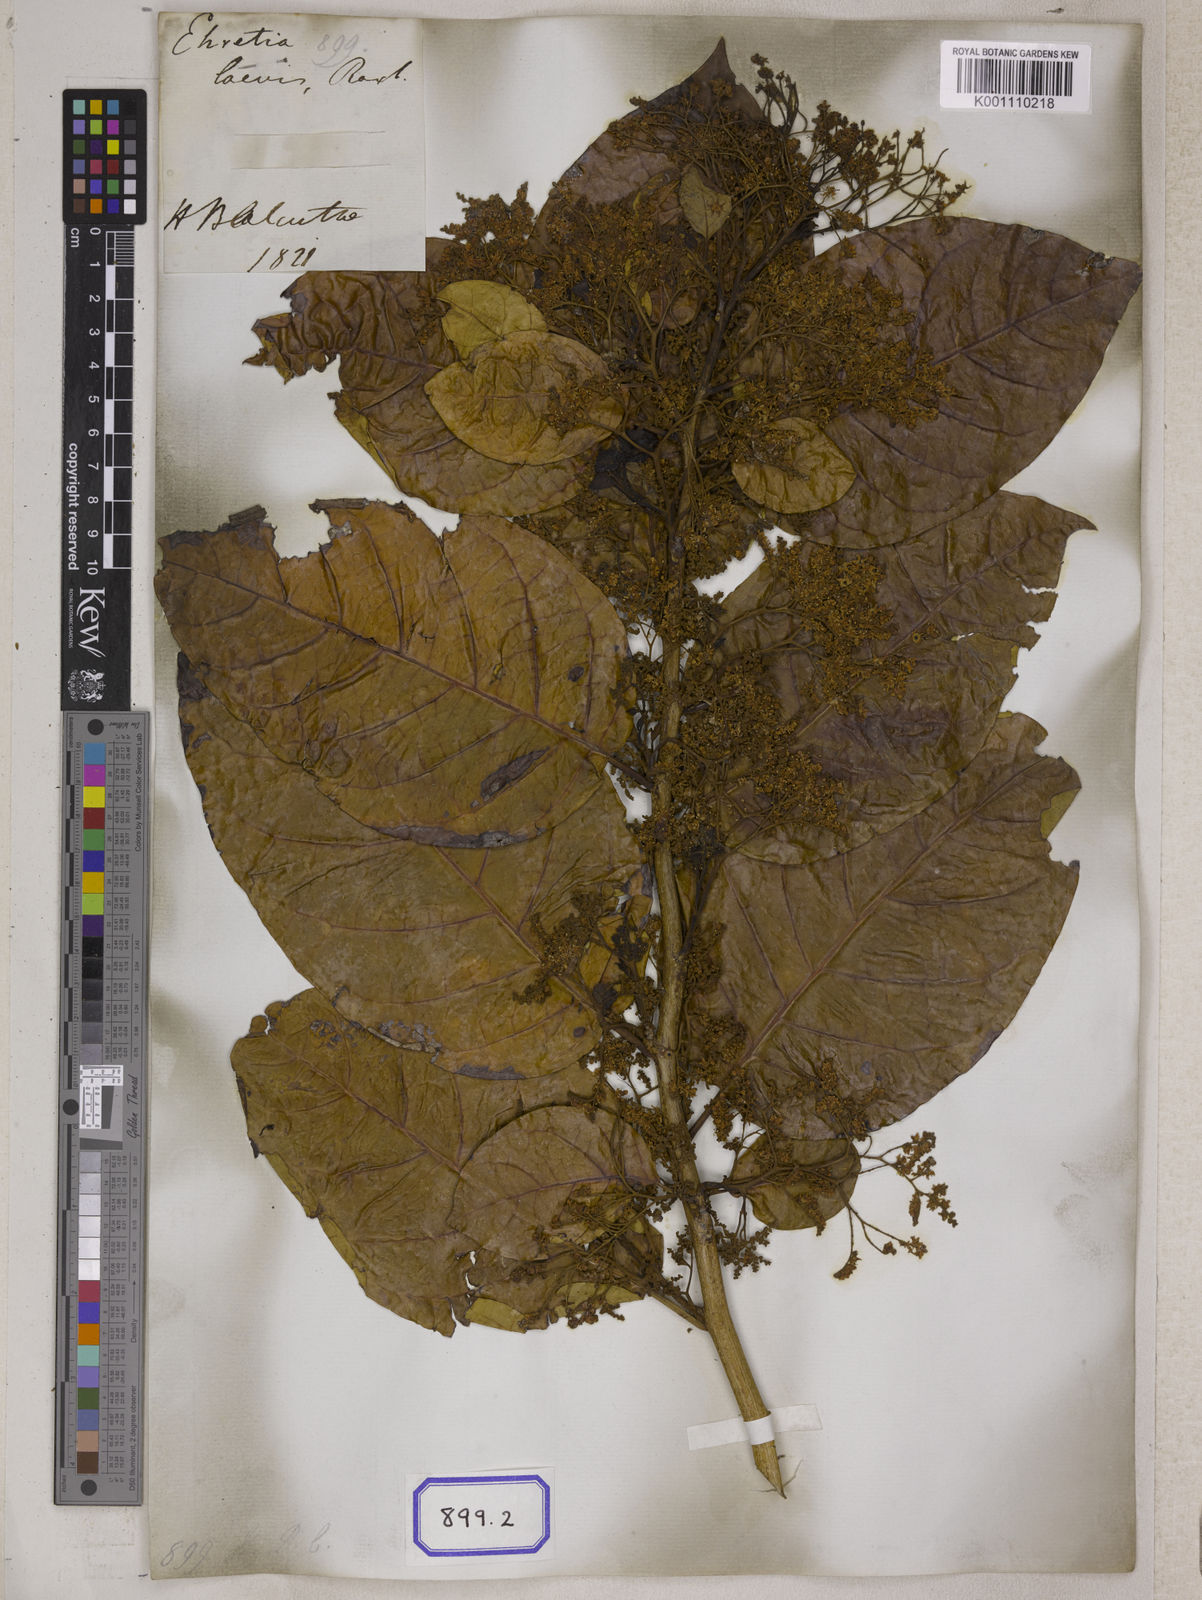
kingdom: Plantae
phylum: Tracheophyta
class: Magnoliopsida
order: Boraginales
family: Ehretiaceae
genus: Ehretia
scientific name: Ehretia laevis
